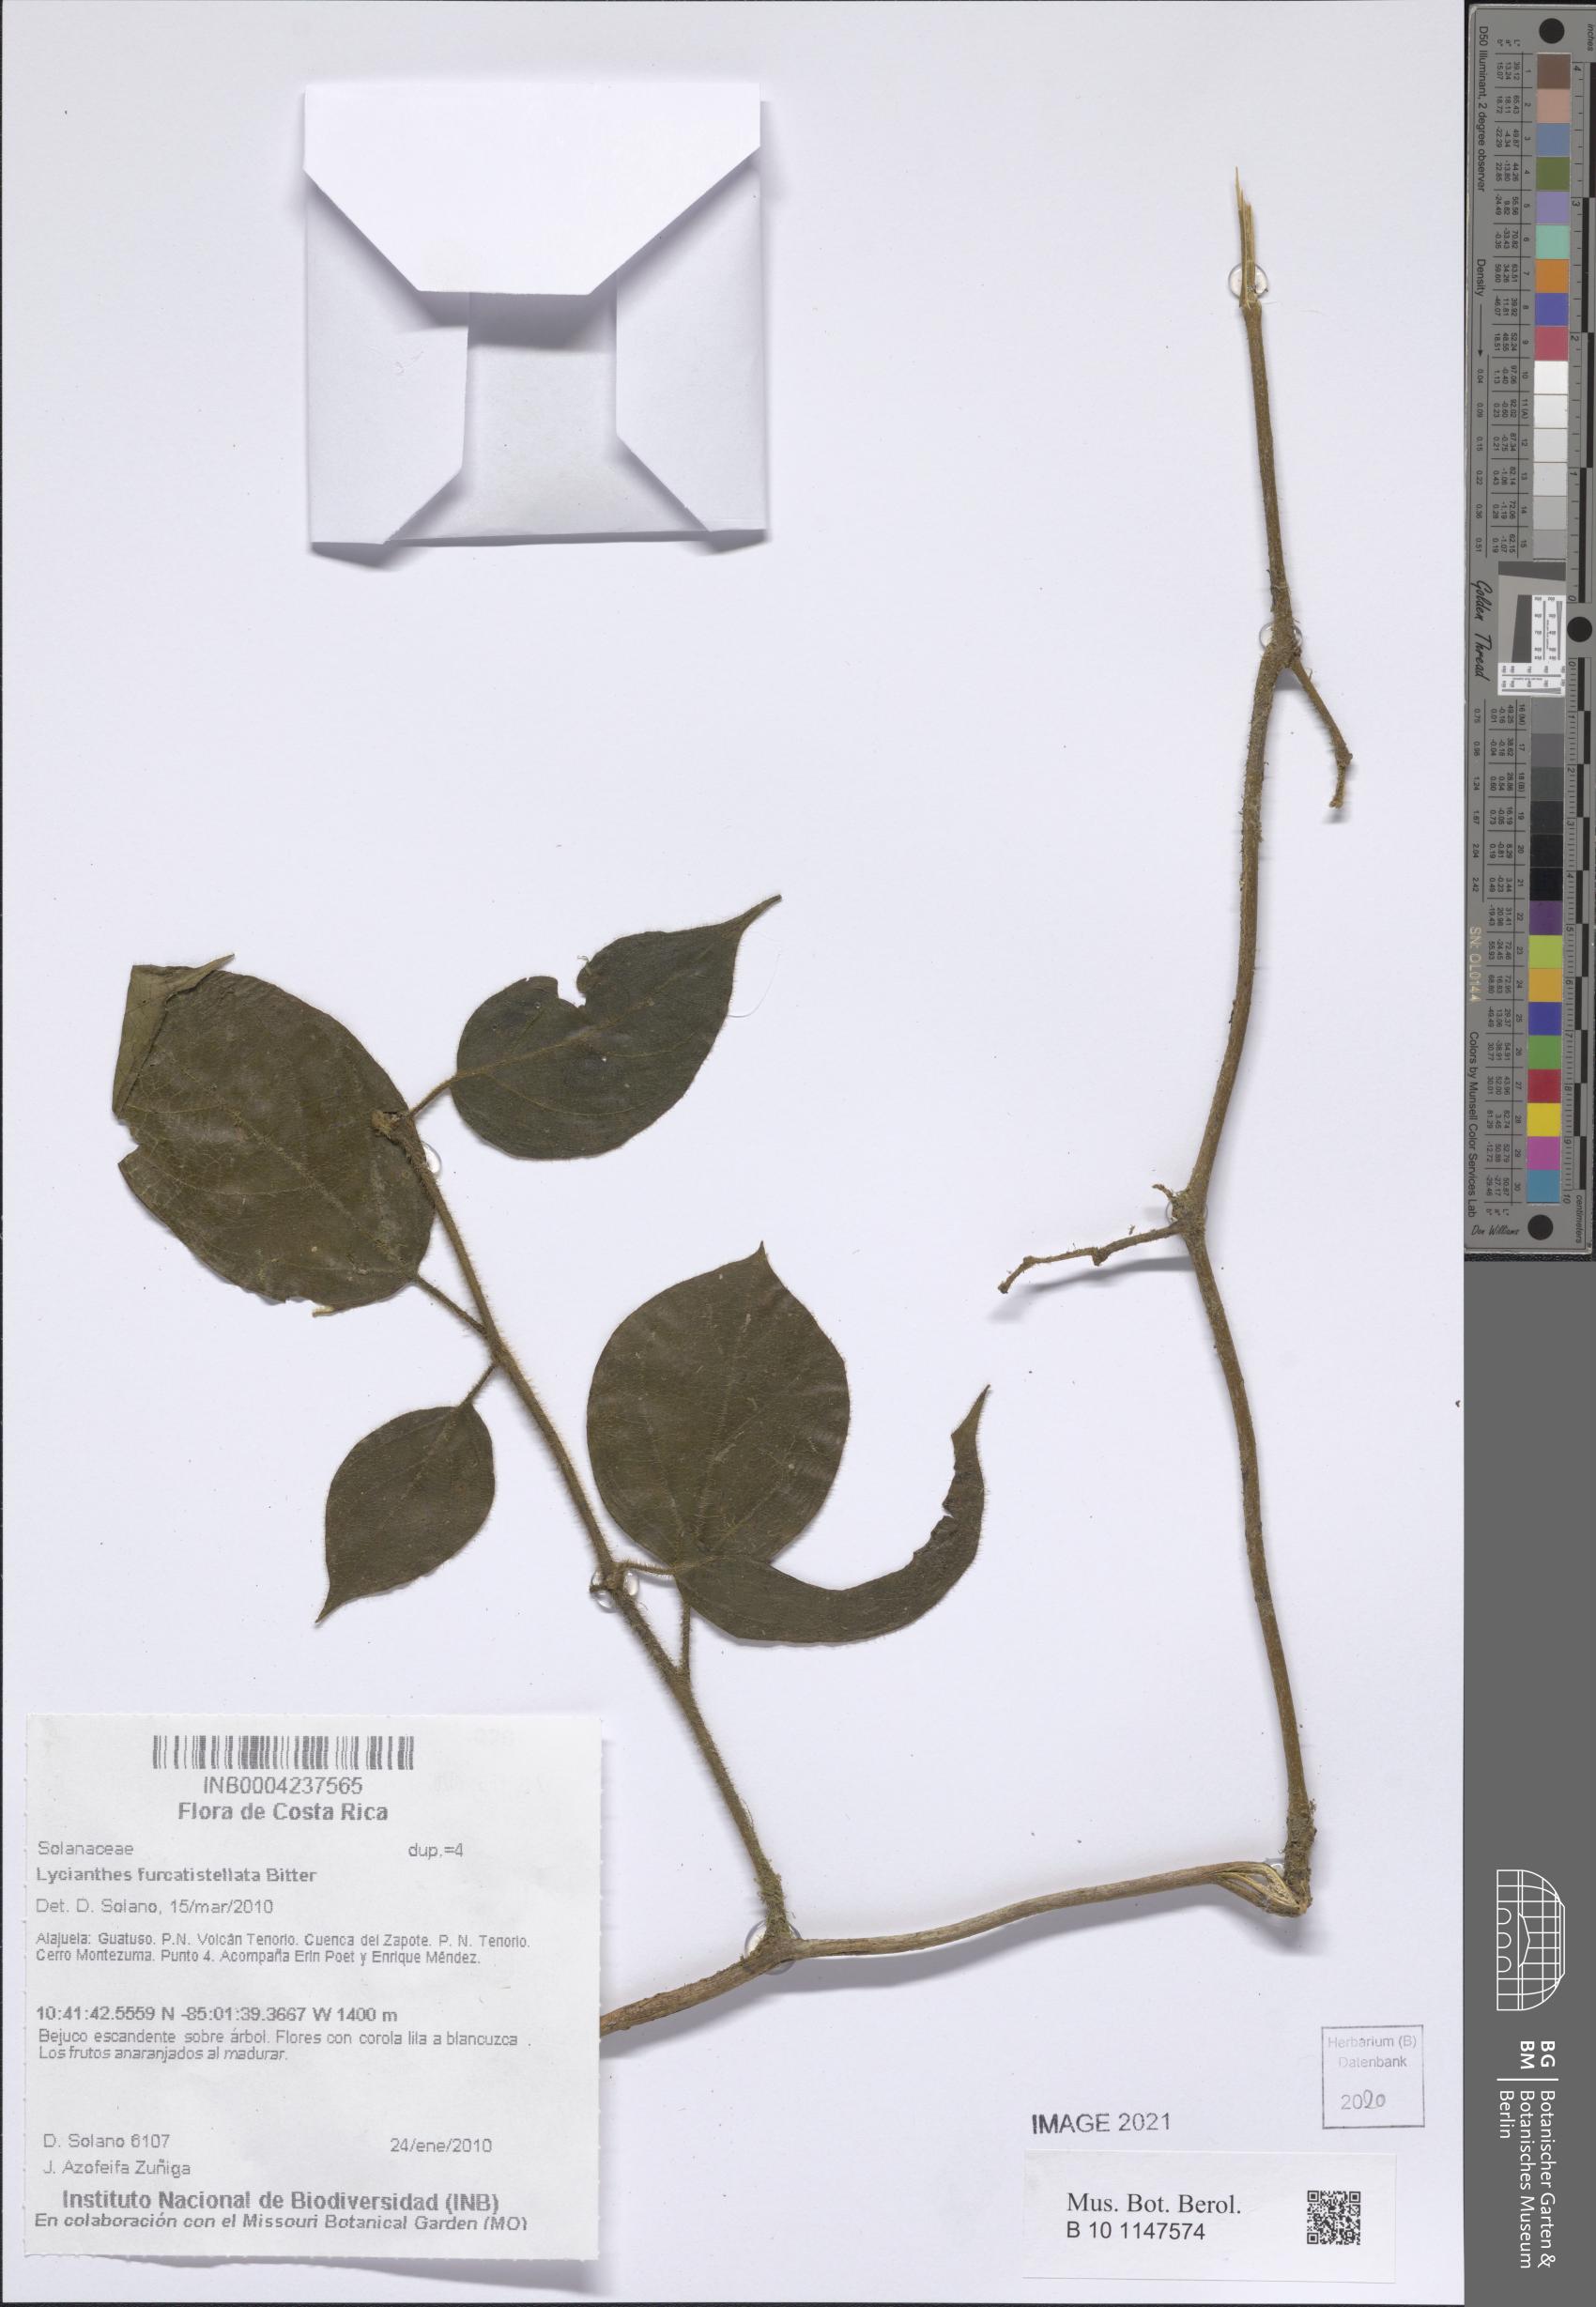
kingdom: Plantae
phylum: Tracheophyta
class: Magnoliopsida
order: Solanales
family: Solanaceae
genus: Lycianthes
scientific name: Lycianthes furcatistellata
